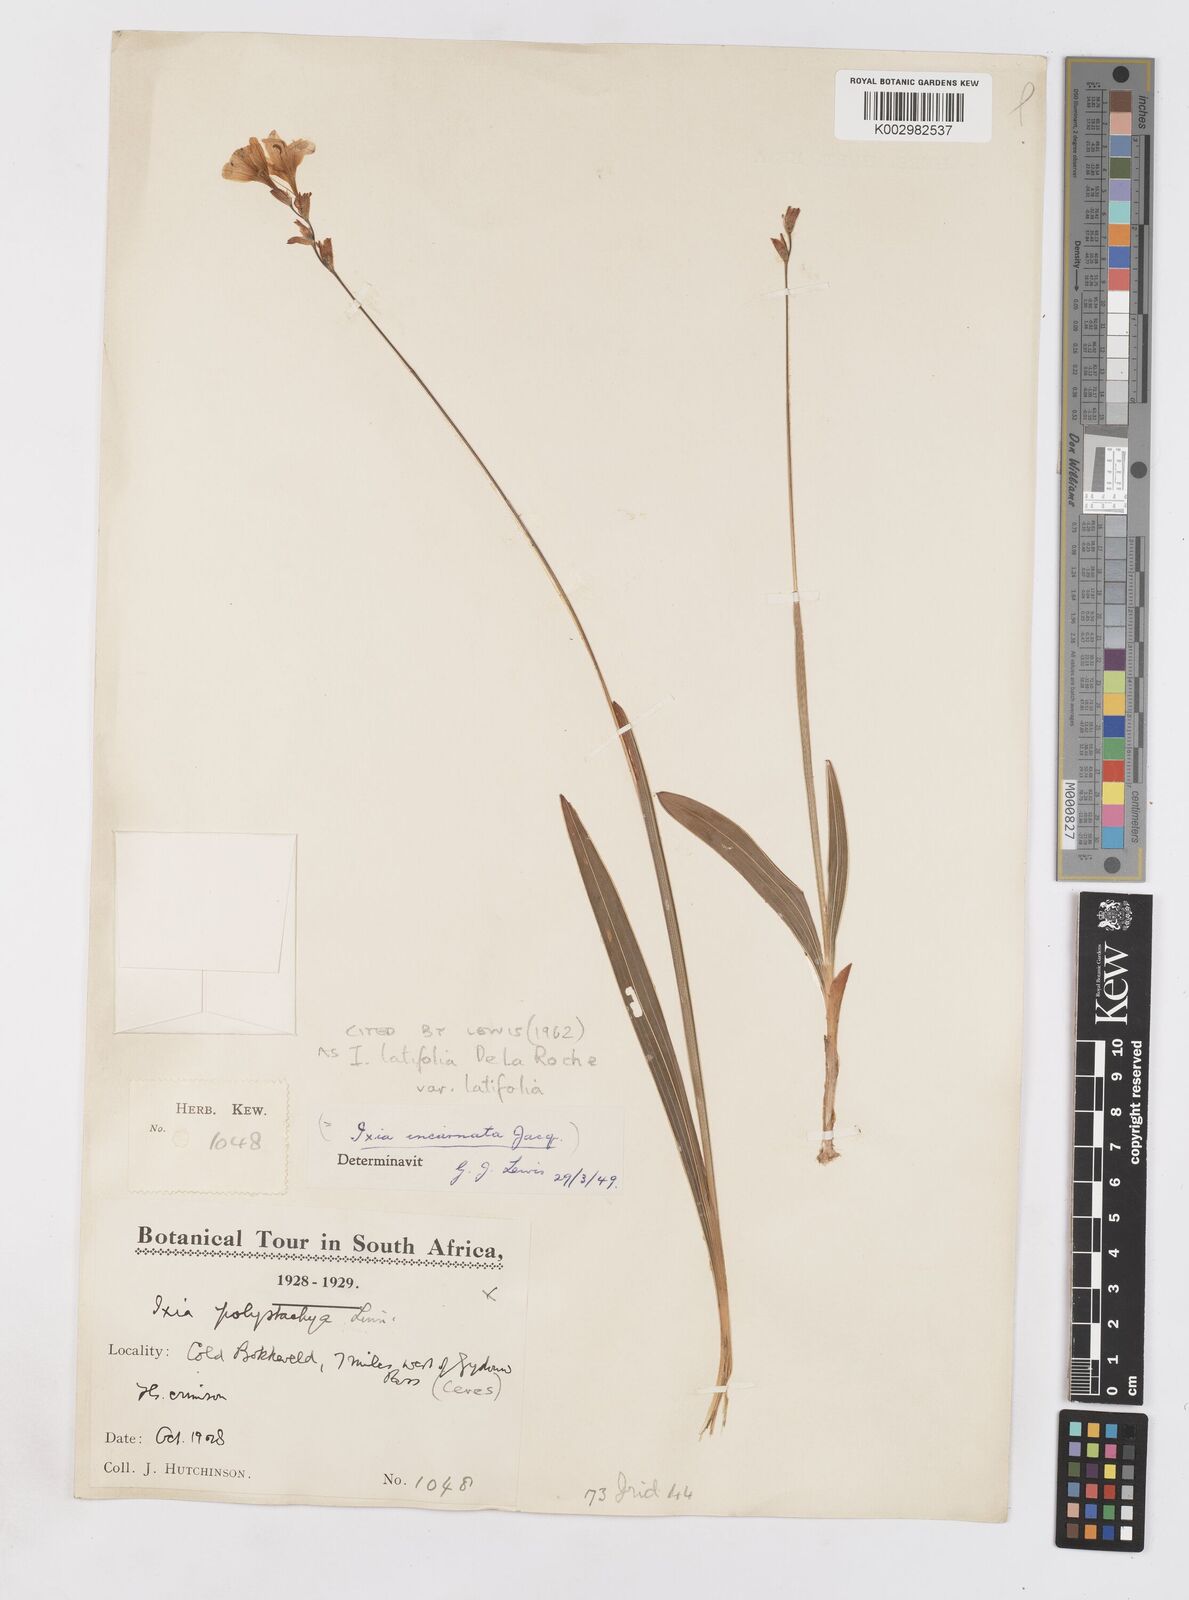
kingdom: Plantae
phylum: Tracheophyta
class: Liliopsida
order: Asparagales
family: Iridaceae
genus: Ixia
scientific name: Ixia latifolia
